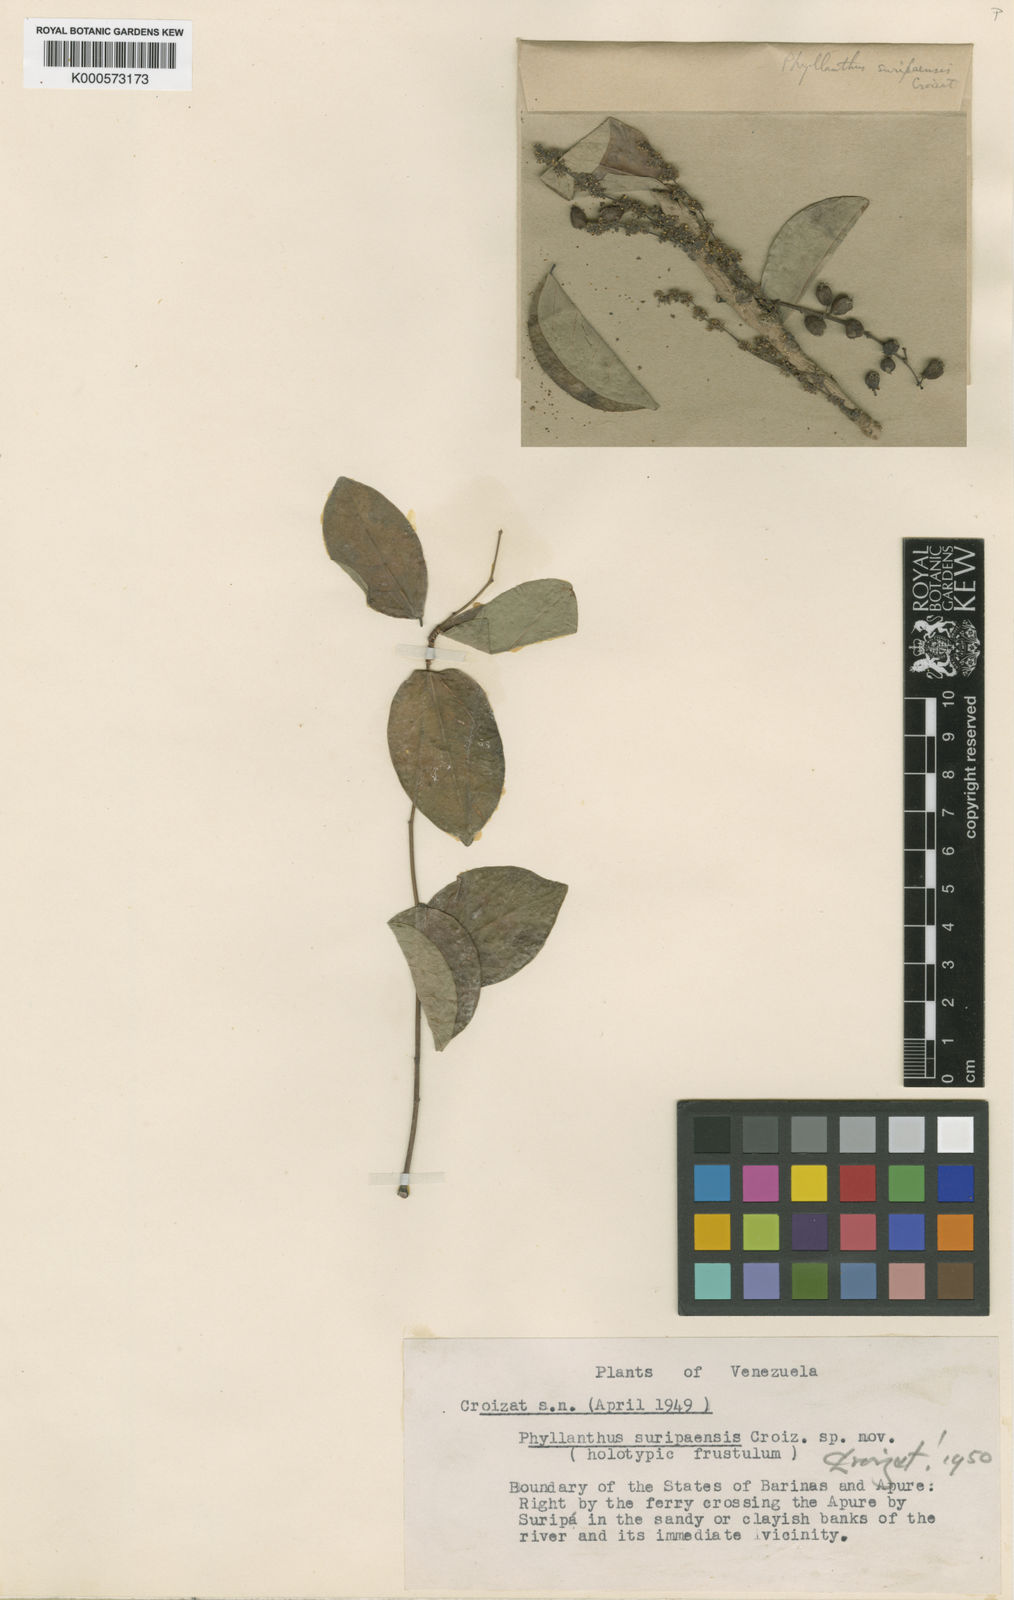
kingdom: Plantae
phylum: Tracheophyta
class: Magnoliopsida
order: Malpighiales
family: Phyllanthaceae
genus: Phyllanthus
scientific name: Phyllanthus
